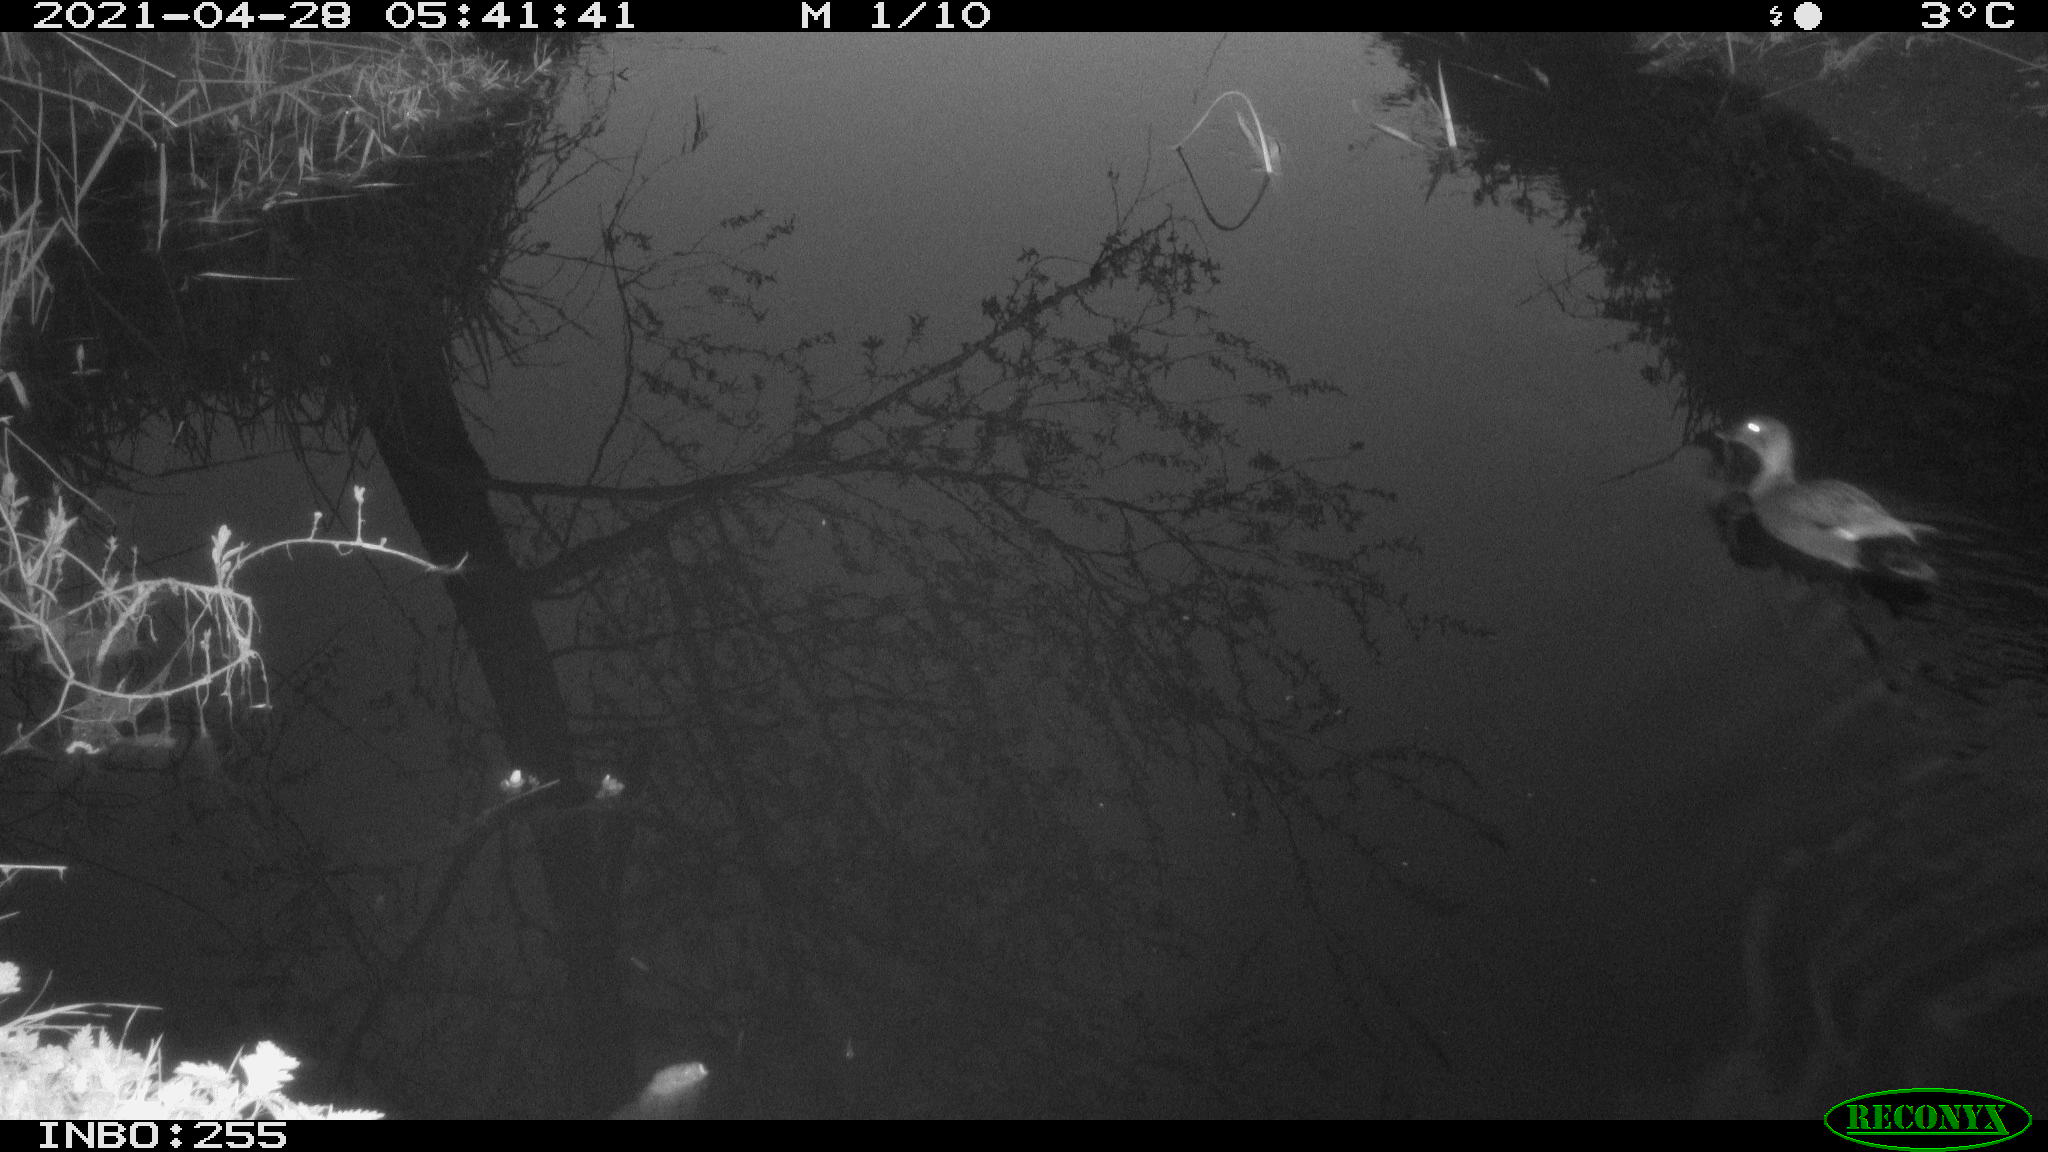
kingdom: Animalia
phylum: Chordata
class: Aves
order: Anseriformes
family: Anatidae
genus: Mareca
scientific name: Mareca strepera
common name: Gadwall
